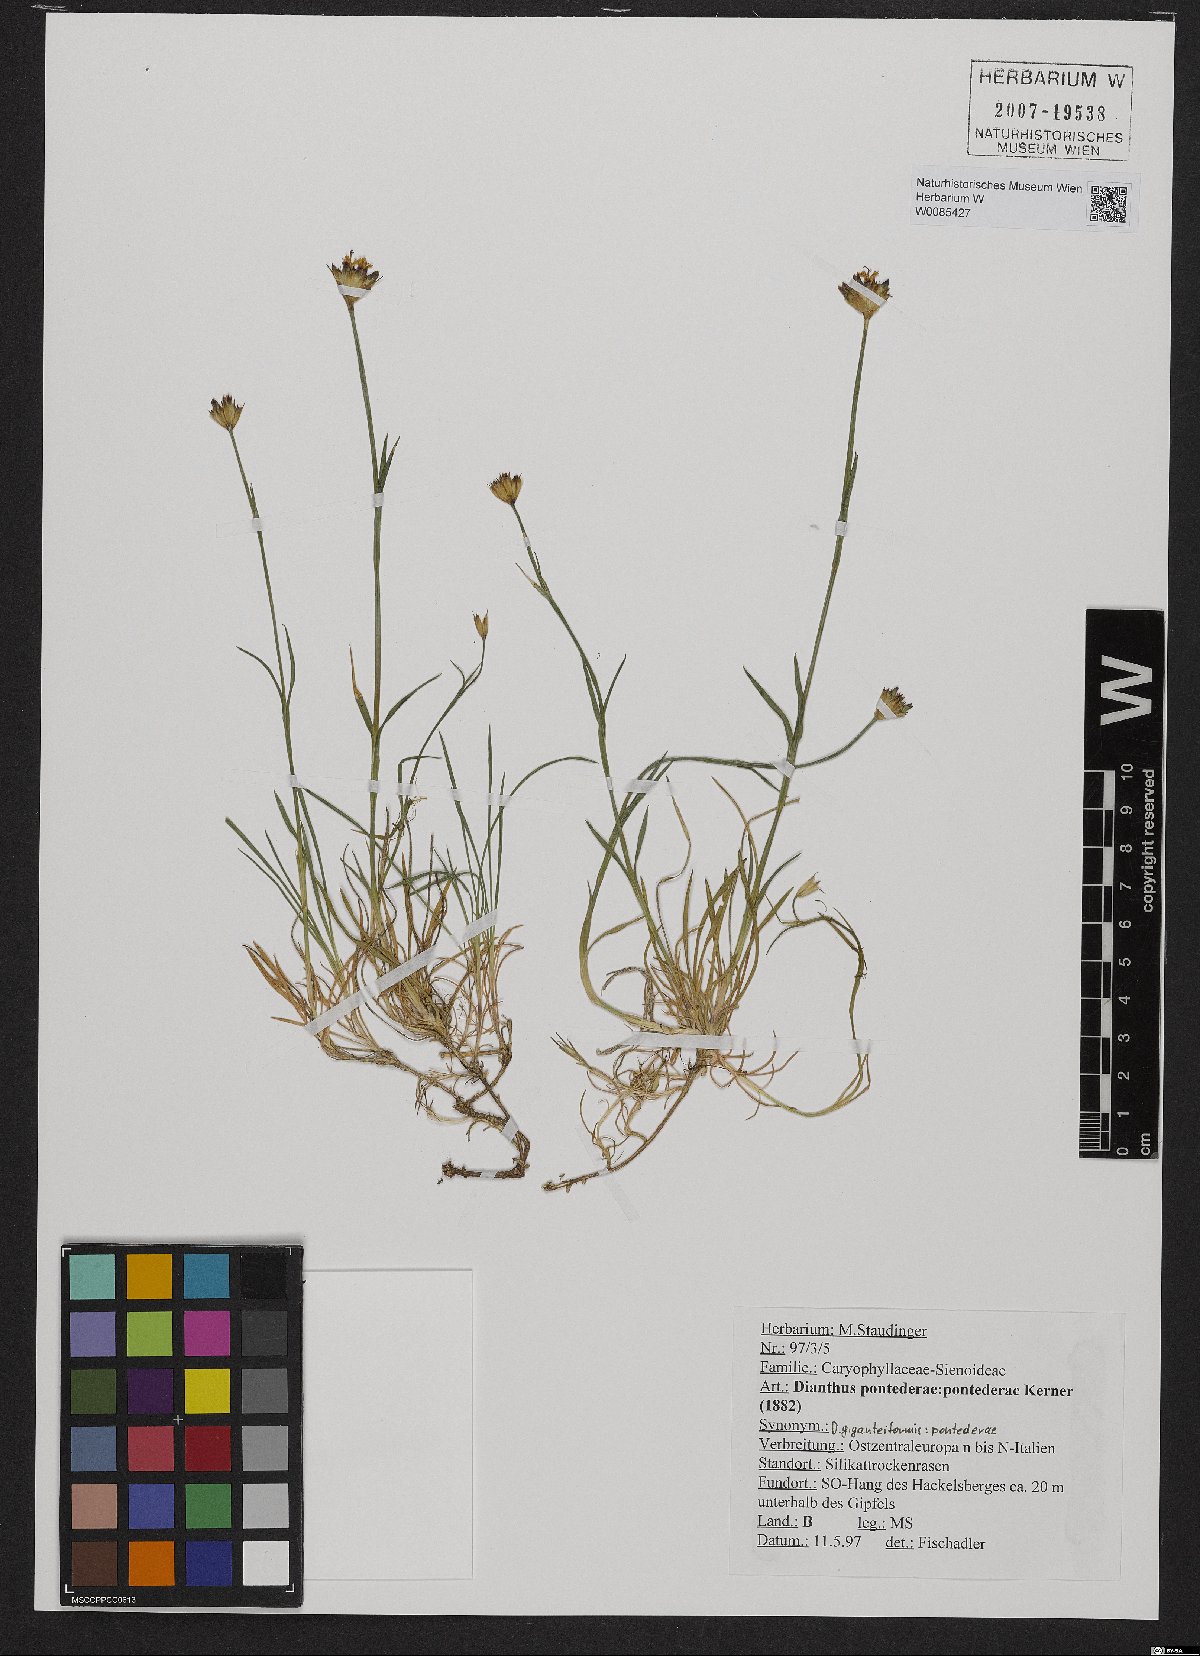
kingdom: Plantae
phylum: Tracheophyta
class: Magnoliopsida
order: Caryophyllales
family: Caryophyllaceae
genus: Dianthus
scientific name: Dianthus pontederae
